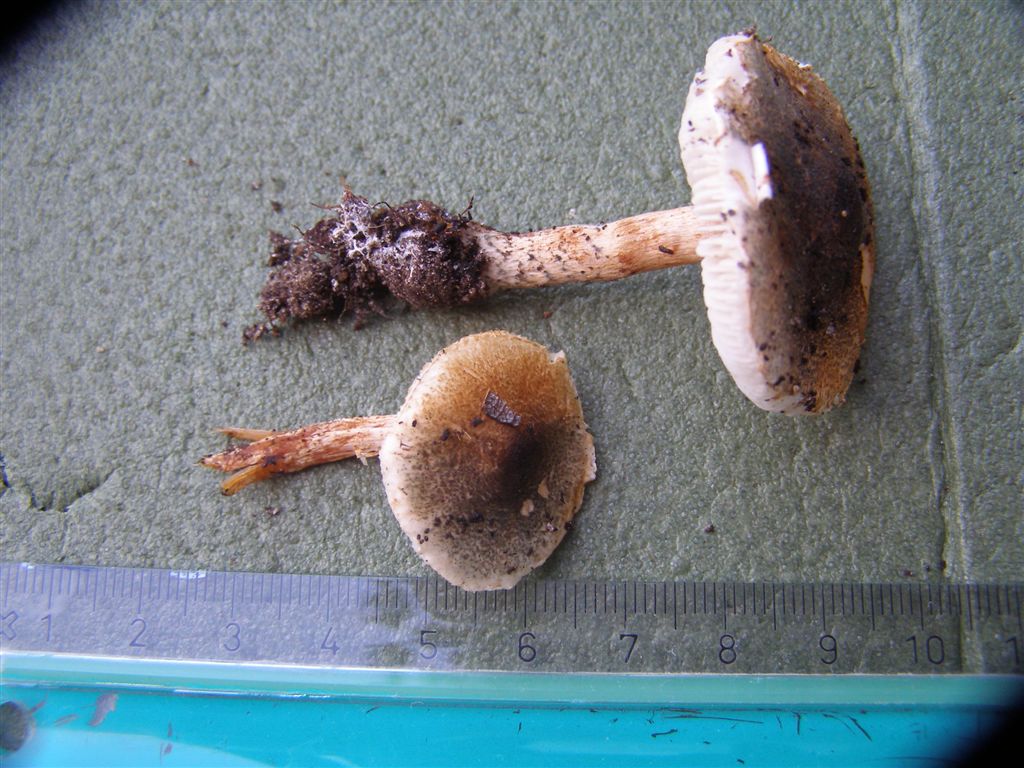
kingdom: Fungi
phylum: Basidiomycota
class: Agaricomycetes
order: Agaricales
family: Agaricaceae
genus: Lepiota
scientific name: Lepiota grangei
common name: grønskællet parasolhat
